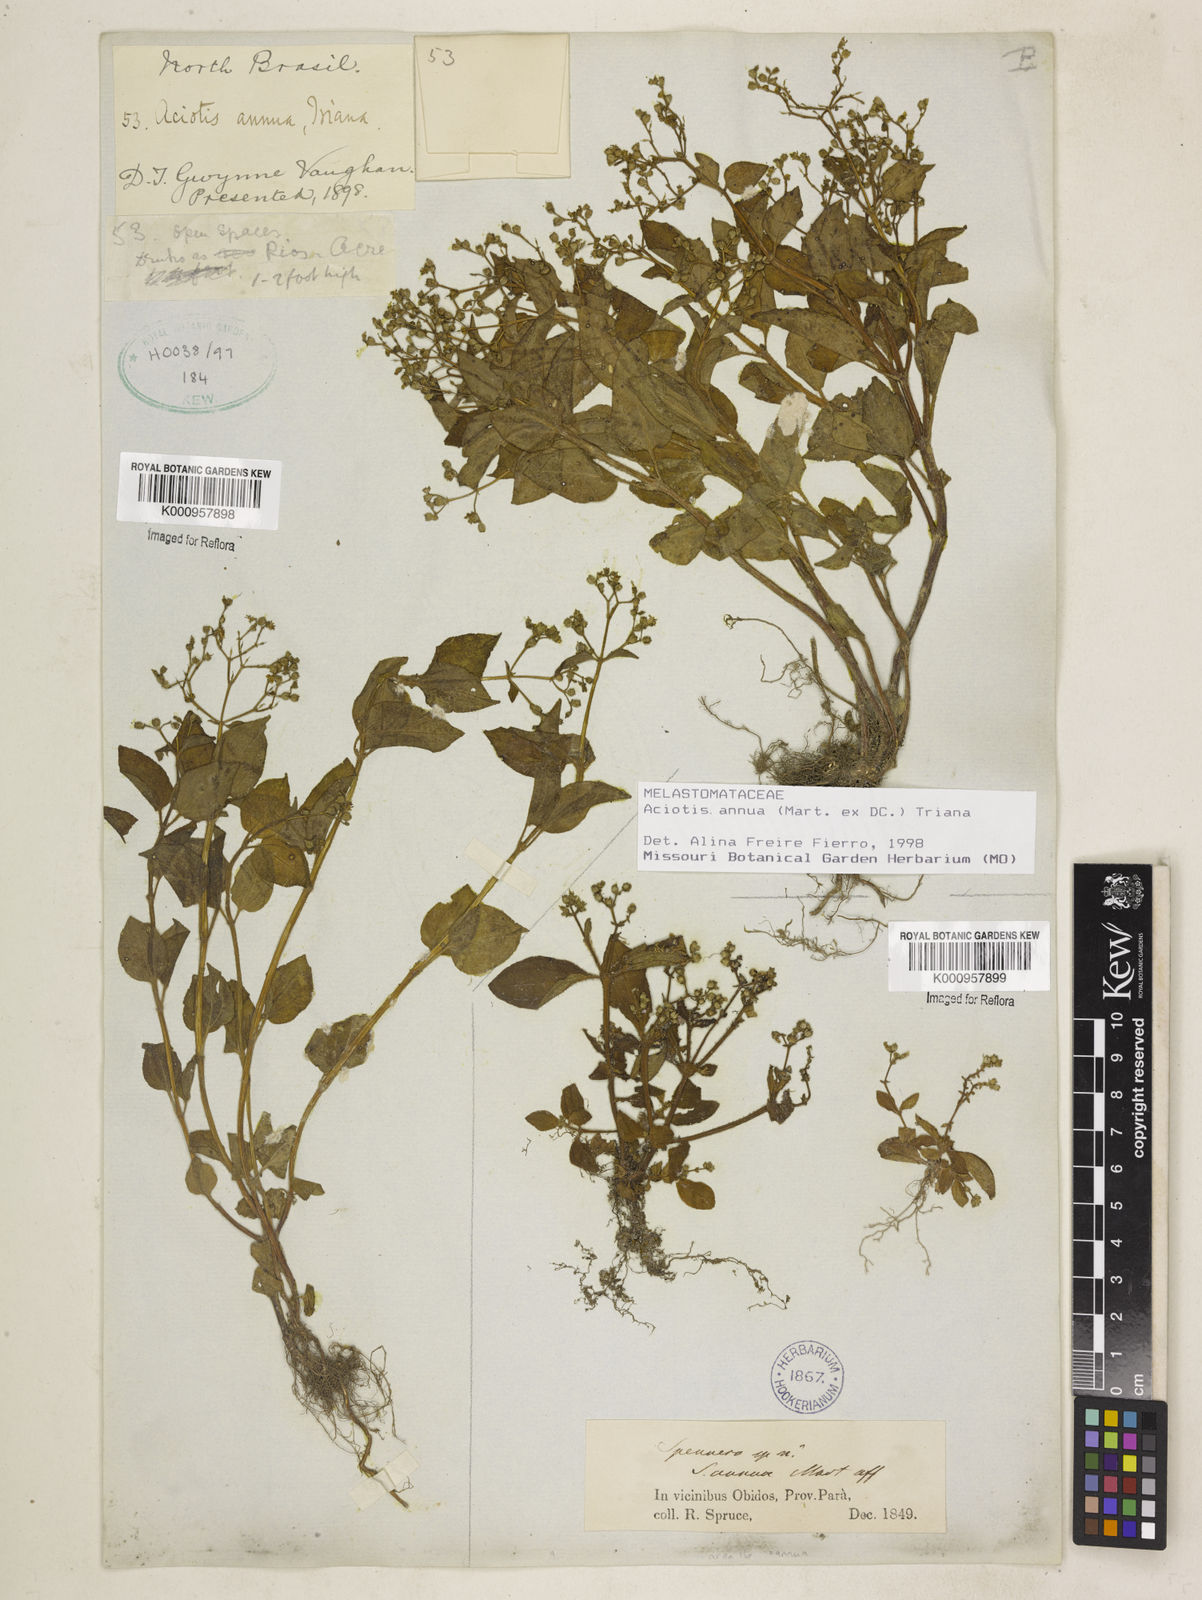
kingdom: Plantae
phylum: Tracheophyta
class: Magnoliopsida
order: Myrtales
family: Melastomataceae
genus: Aciotis
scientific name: Aciotis annua
